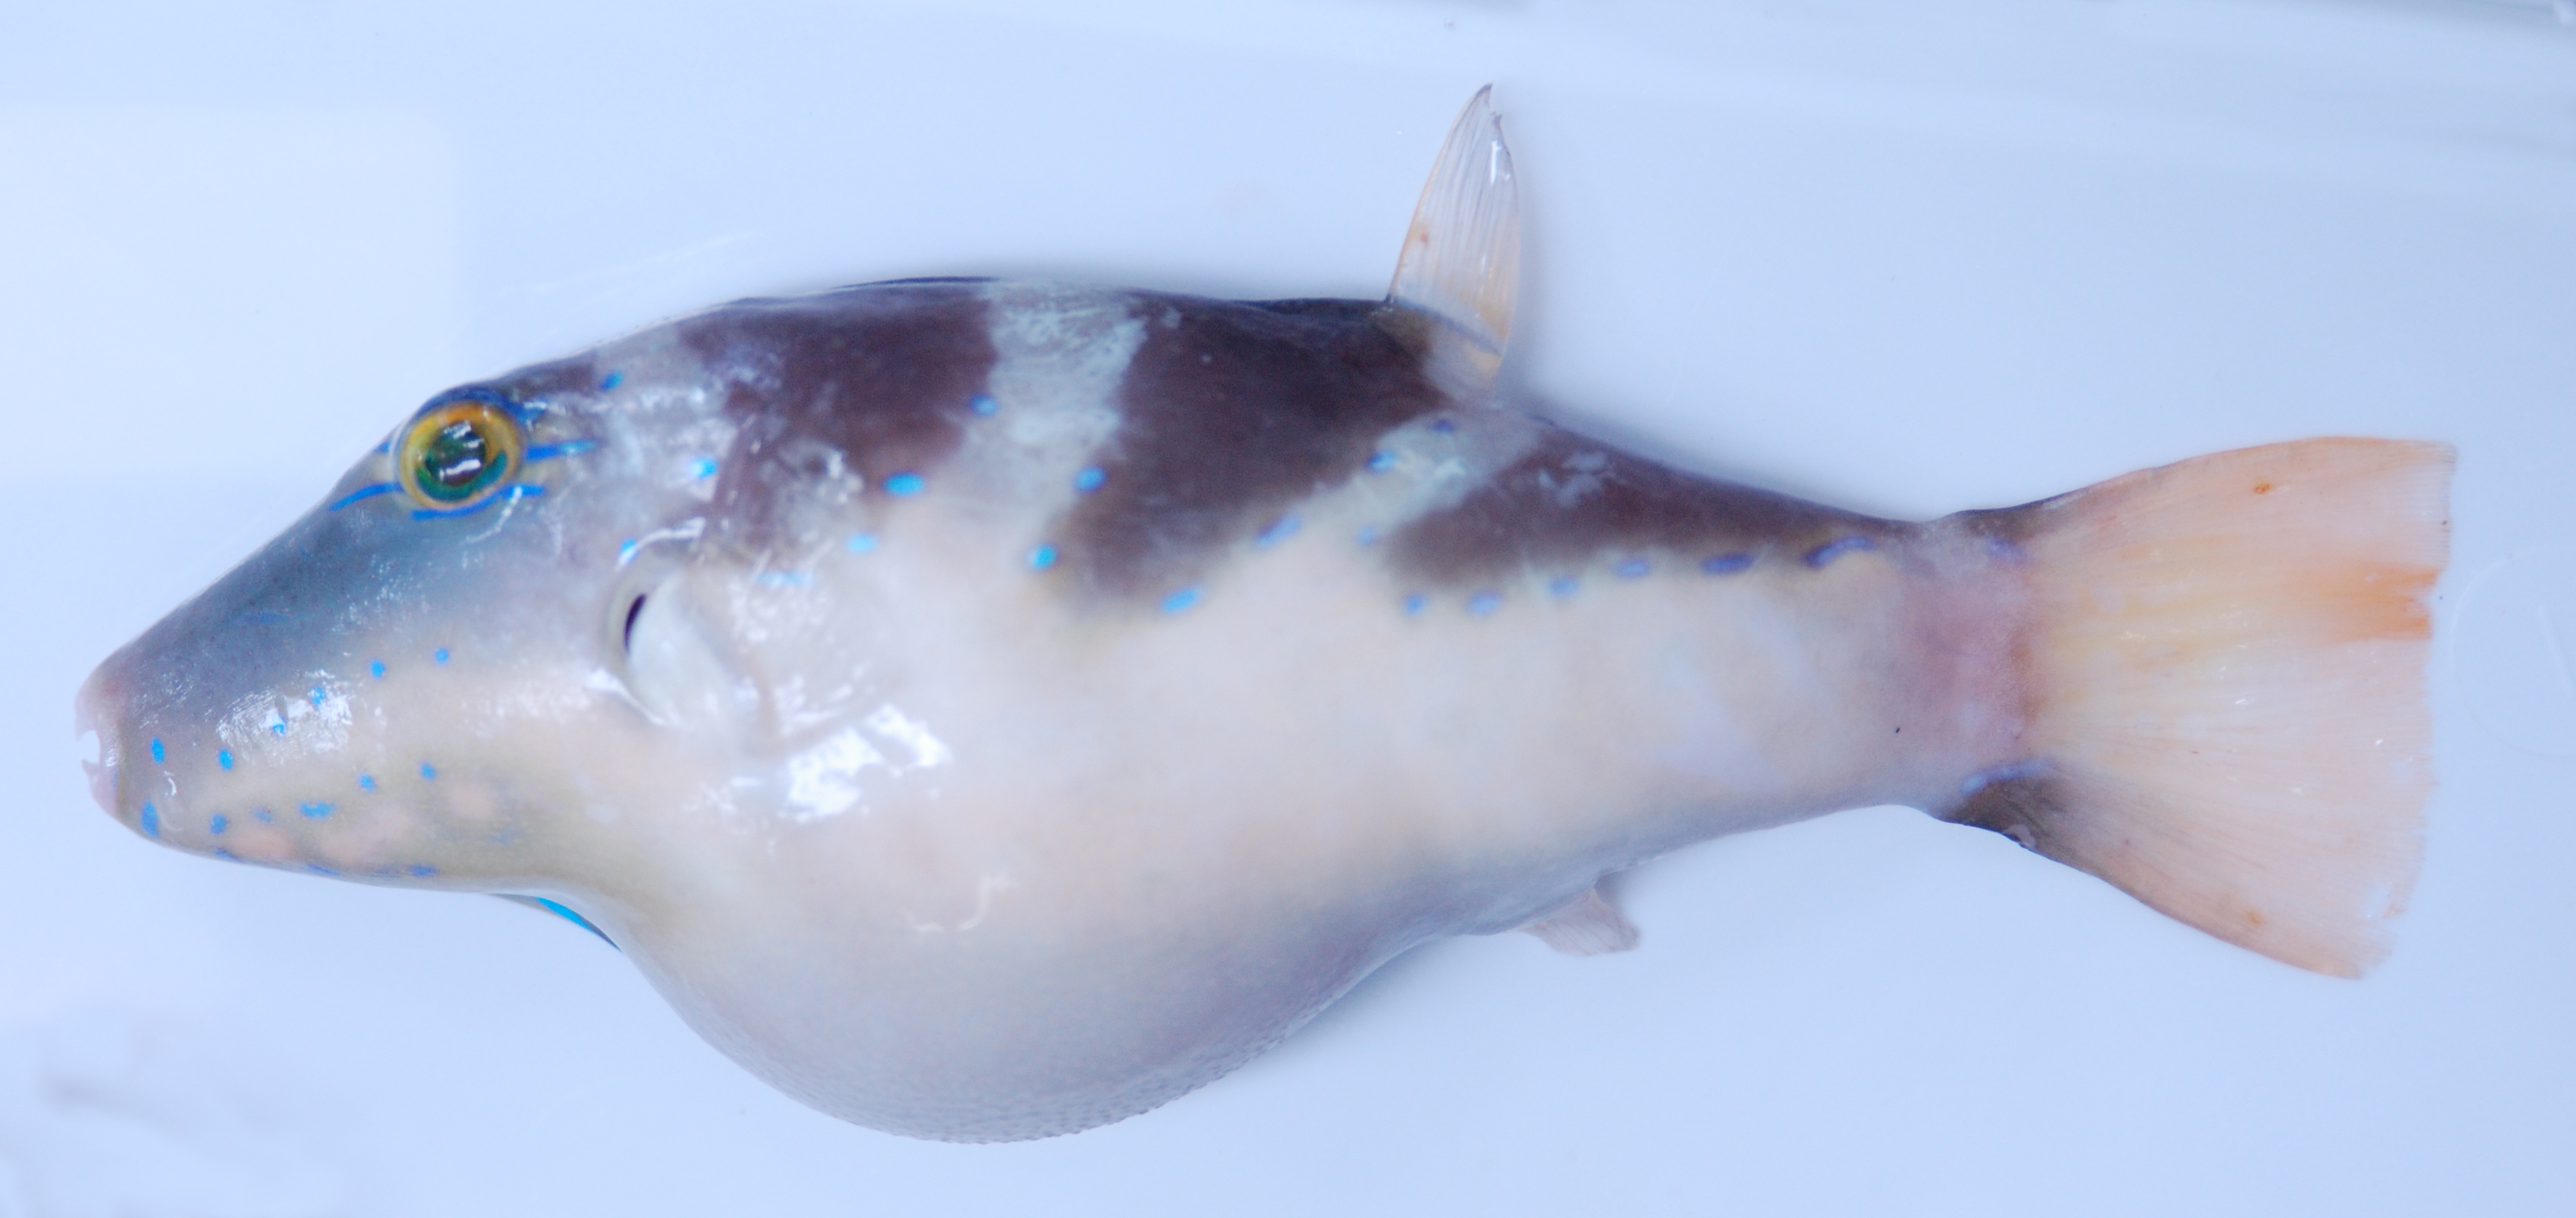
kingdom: Animalia
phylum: Chordata
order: Tetraodontiformes
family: Tetraodontidae
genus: Canthigaster
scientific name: Canthigaster coronata
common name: Crown toby
